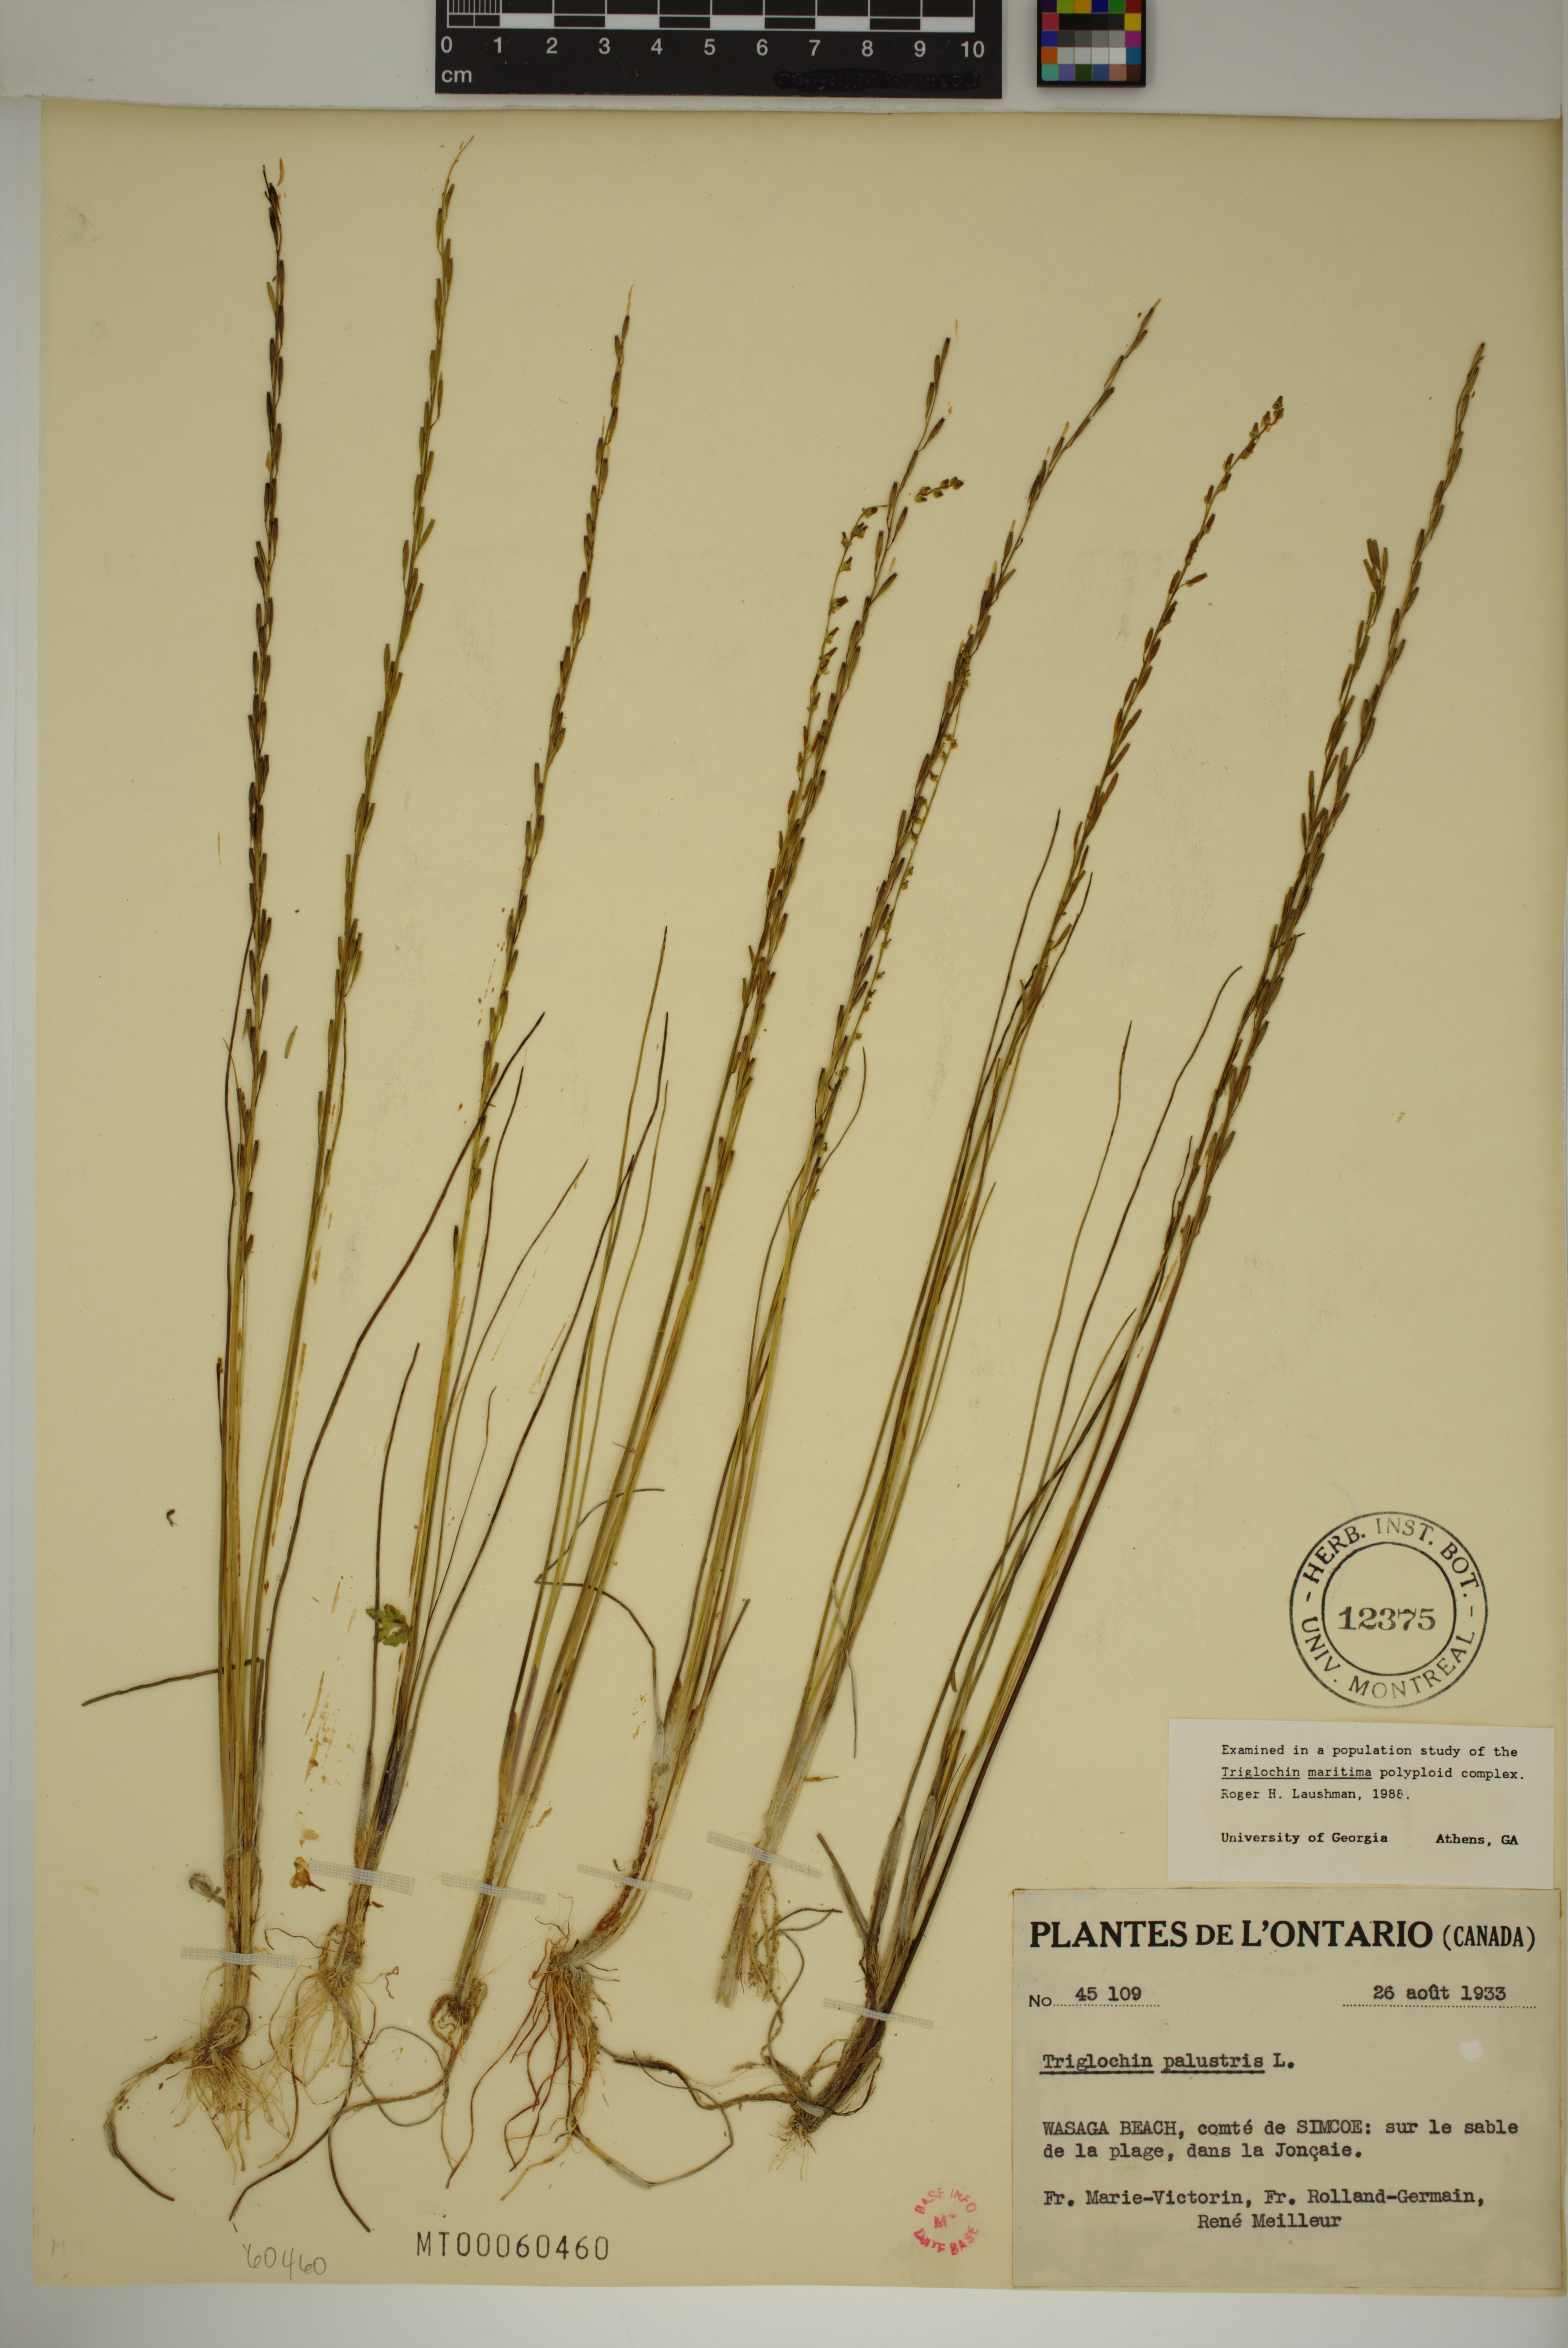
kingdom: Plantae
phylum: Tracheophyta
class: Liliopsida
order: Alismatales
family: Juncaginaceae
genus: Triglochin
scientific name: Triglochin palustris
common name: Marsh arrowgrass
